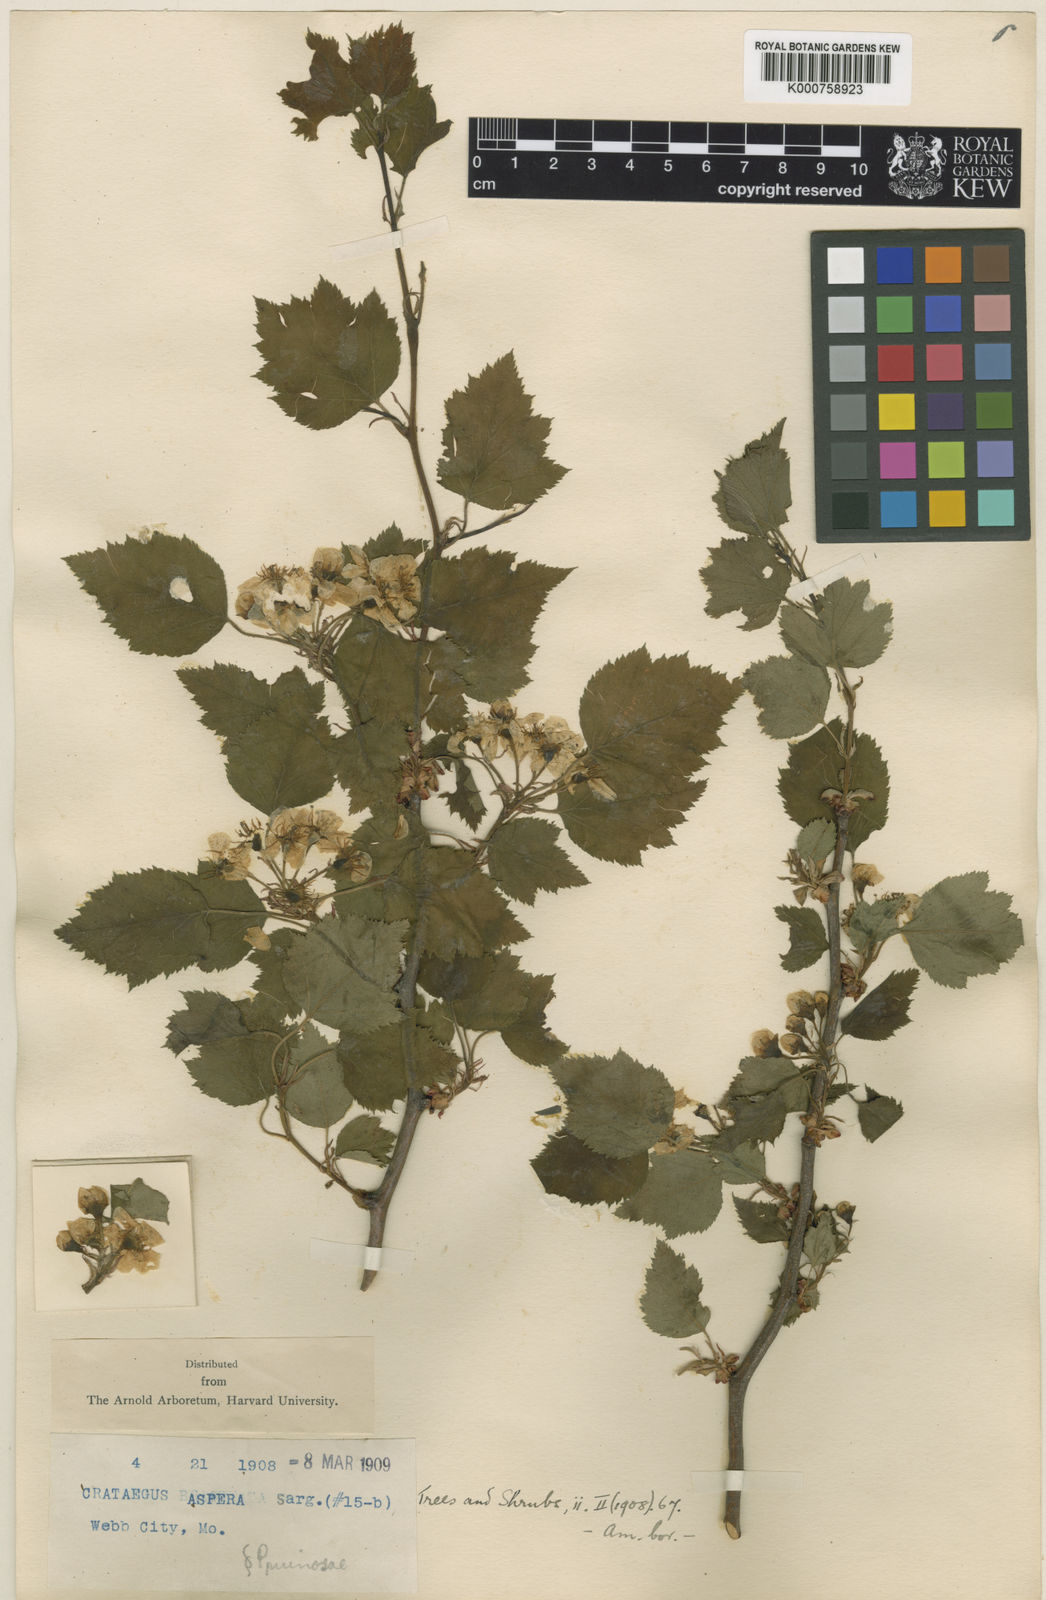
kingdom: Plantae
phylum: Tracheophyta
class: Magnoliopsida
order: Rosales
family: Rosaceae
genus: Crataegus
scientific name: Crataegus pruinosa
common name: Waxy-fruit hawthorn
